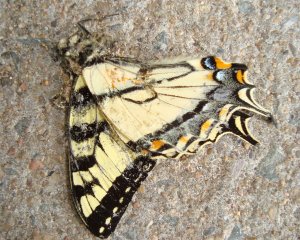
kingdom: Animalia
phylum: Arthropoda
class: Insecta
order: Lepidoptera
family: Papilionidae
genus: Pterourus
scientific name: Pterourus canadensis
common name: Canadian Tiger Swallowtail
